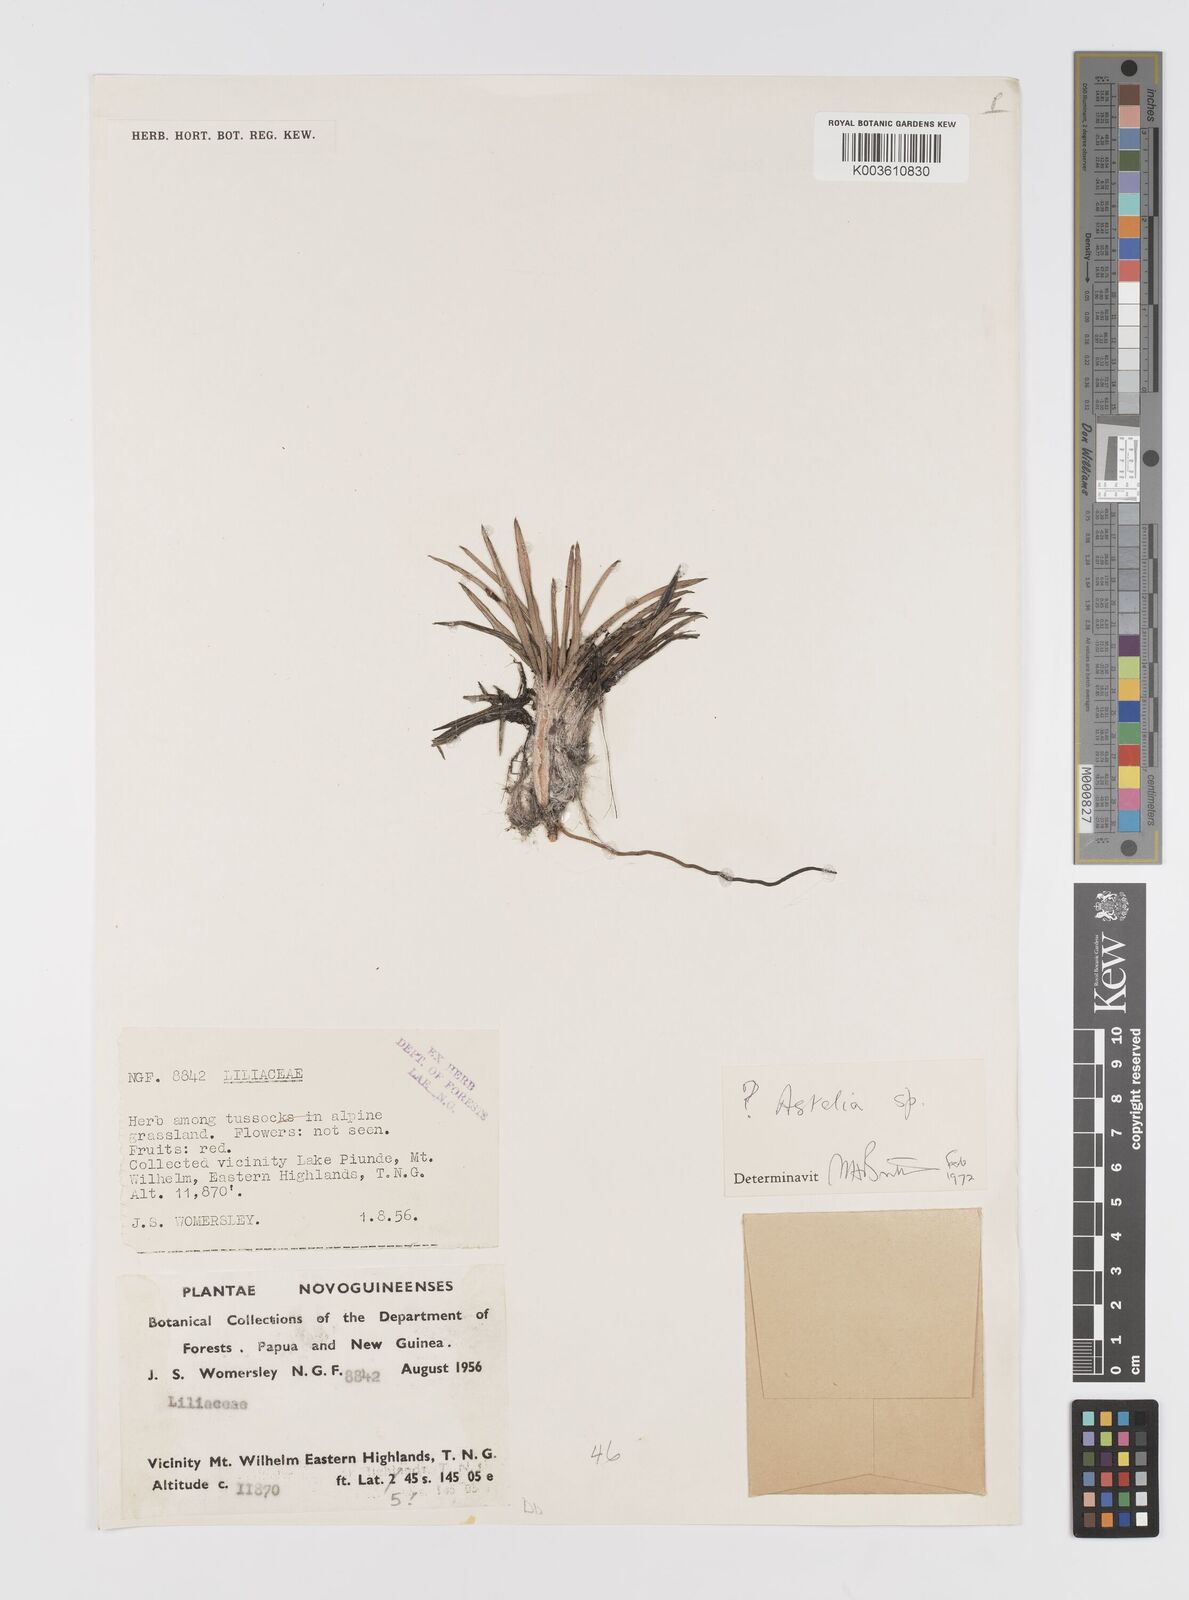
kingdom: Plantae
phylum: Tracheophyta
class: Liliopsida
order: Asparagales
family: Asteliaceae
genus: Astelia
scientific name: Astelia
